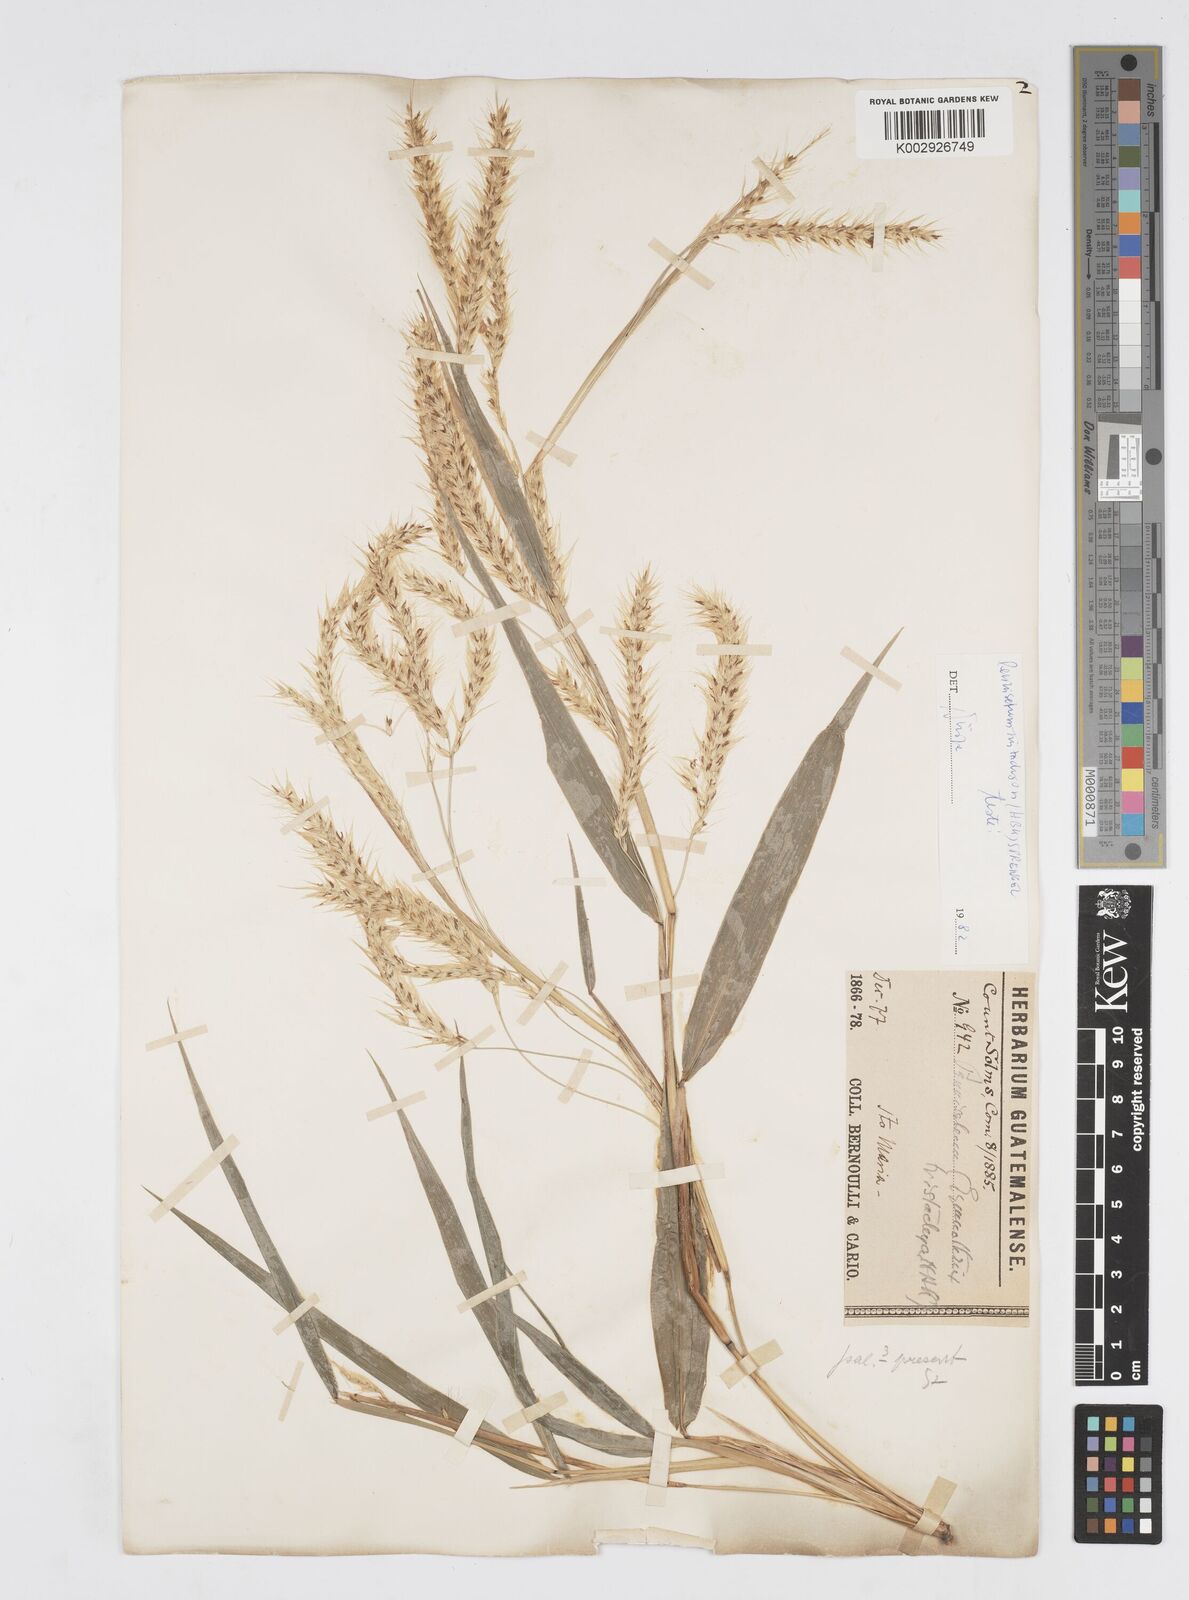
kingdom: Plantae
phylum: Tracheophyta
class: Liliopsida
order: Poales
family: Poaceae
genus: Cenchrus
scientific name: Cenchrus prolificus
